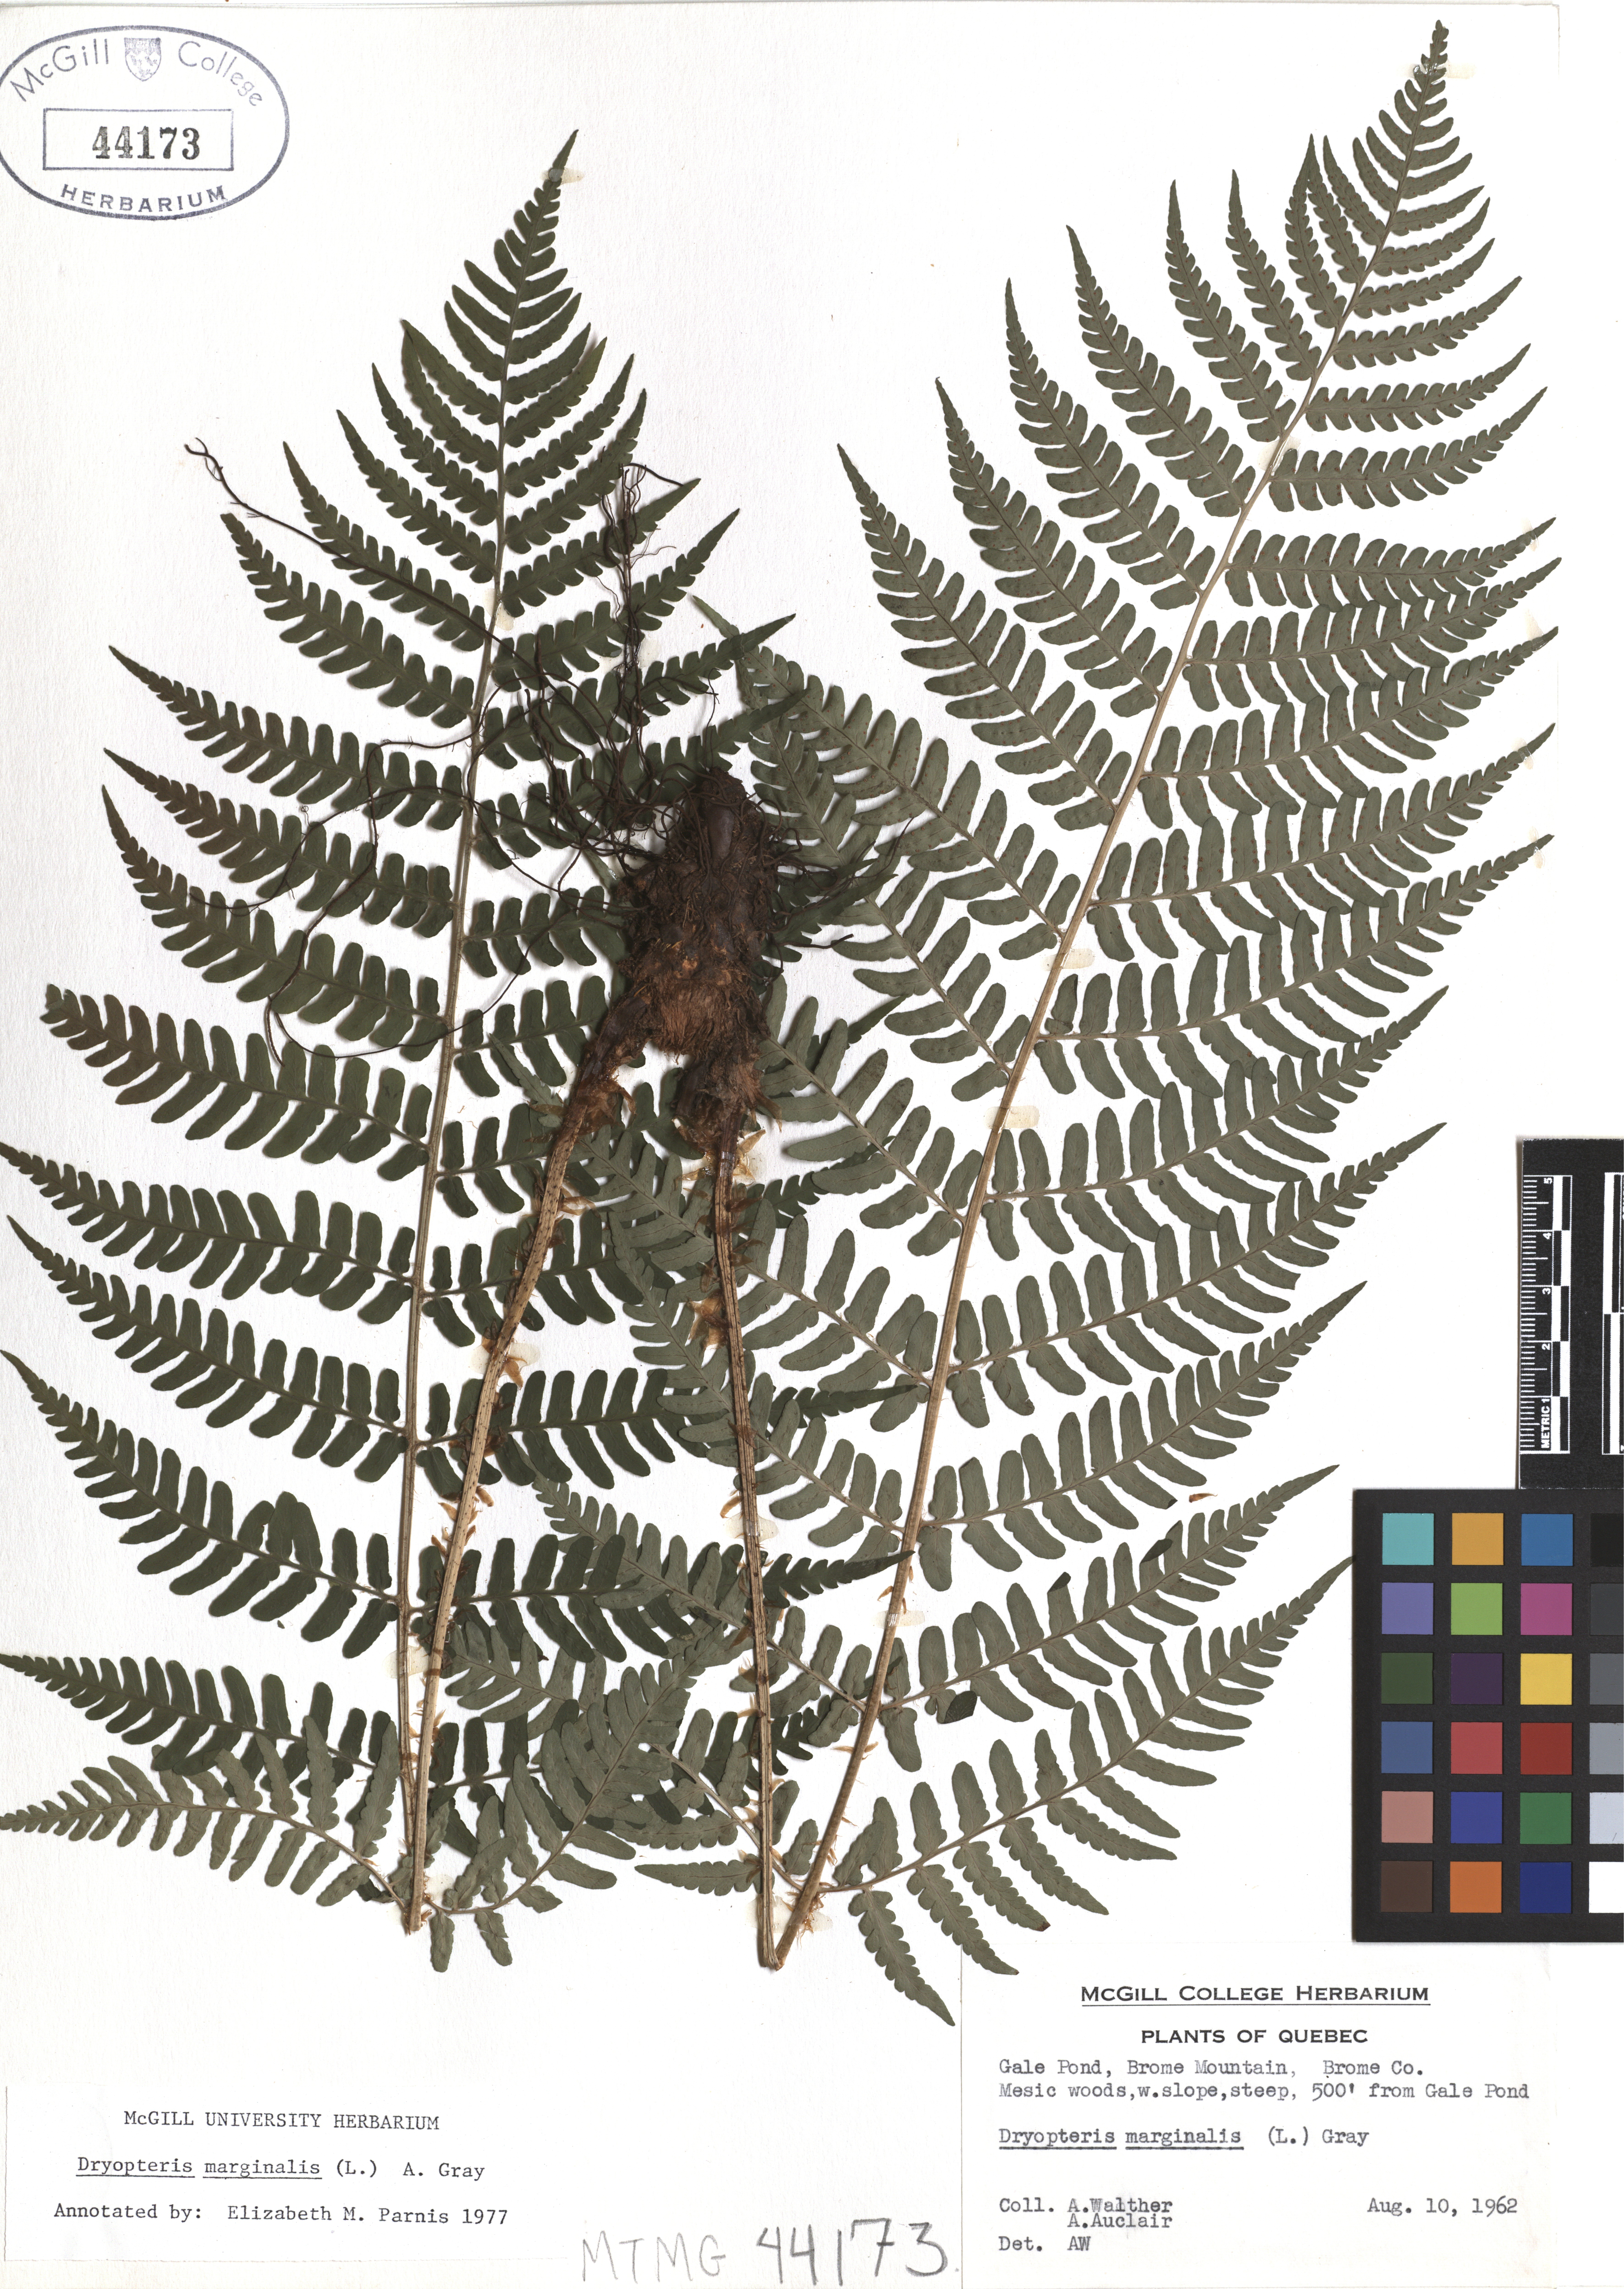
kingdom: Plantae
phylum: Tracheophyta
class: Polypodiopsida
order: Polypodiales
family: Dryopteridaceae
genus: Dryopteris
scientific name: Dryopteris marginalis
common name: Marginal wood fern
